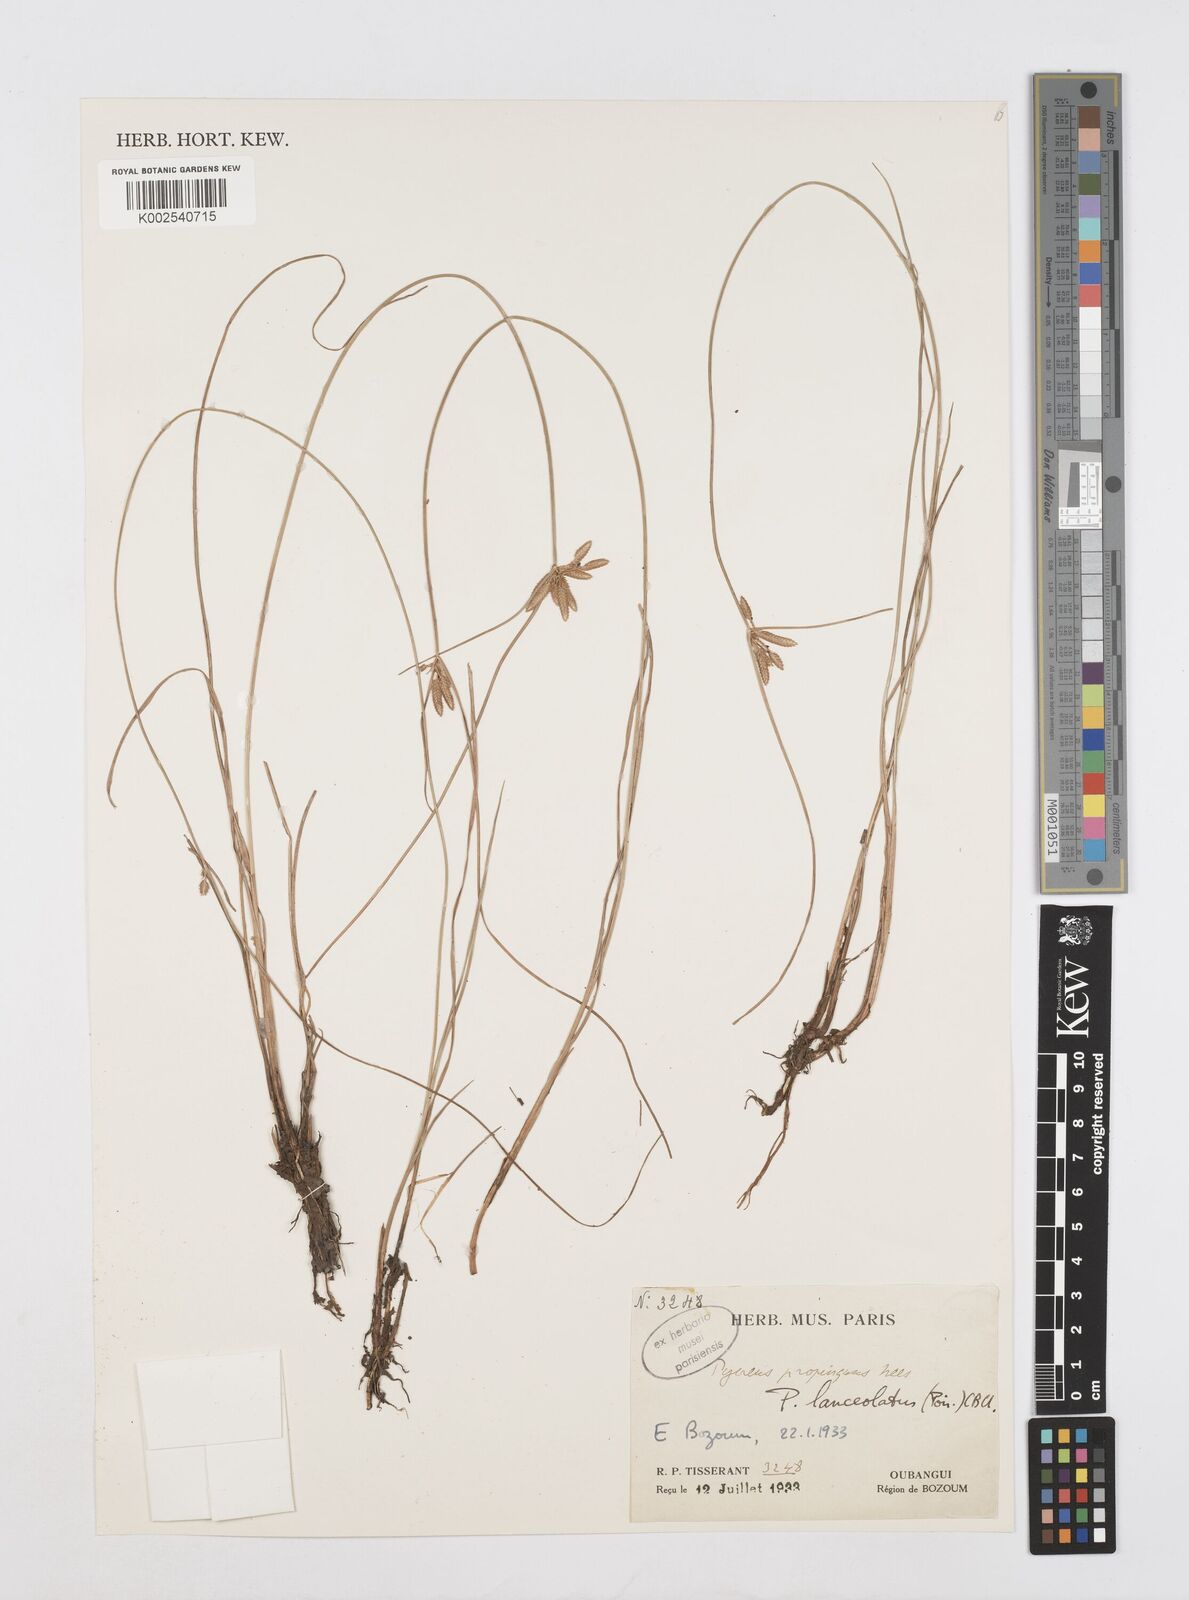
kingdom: Plantae
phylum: Tracheophyta
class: Liliopsida
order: Poales
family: Cyperaceae
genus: Cyperus
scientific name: Cyperus
